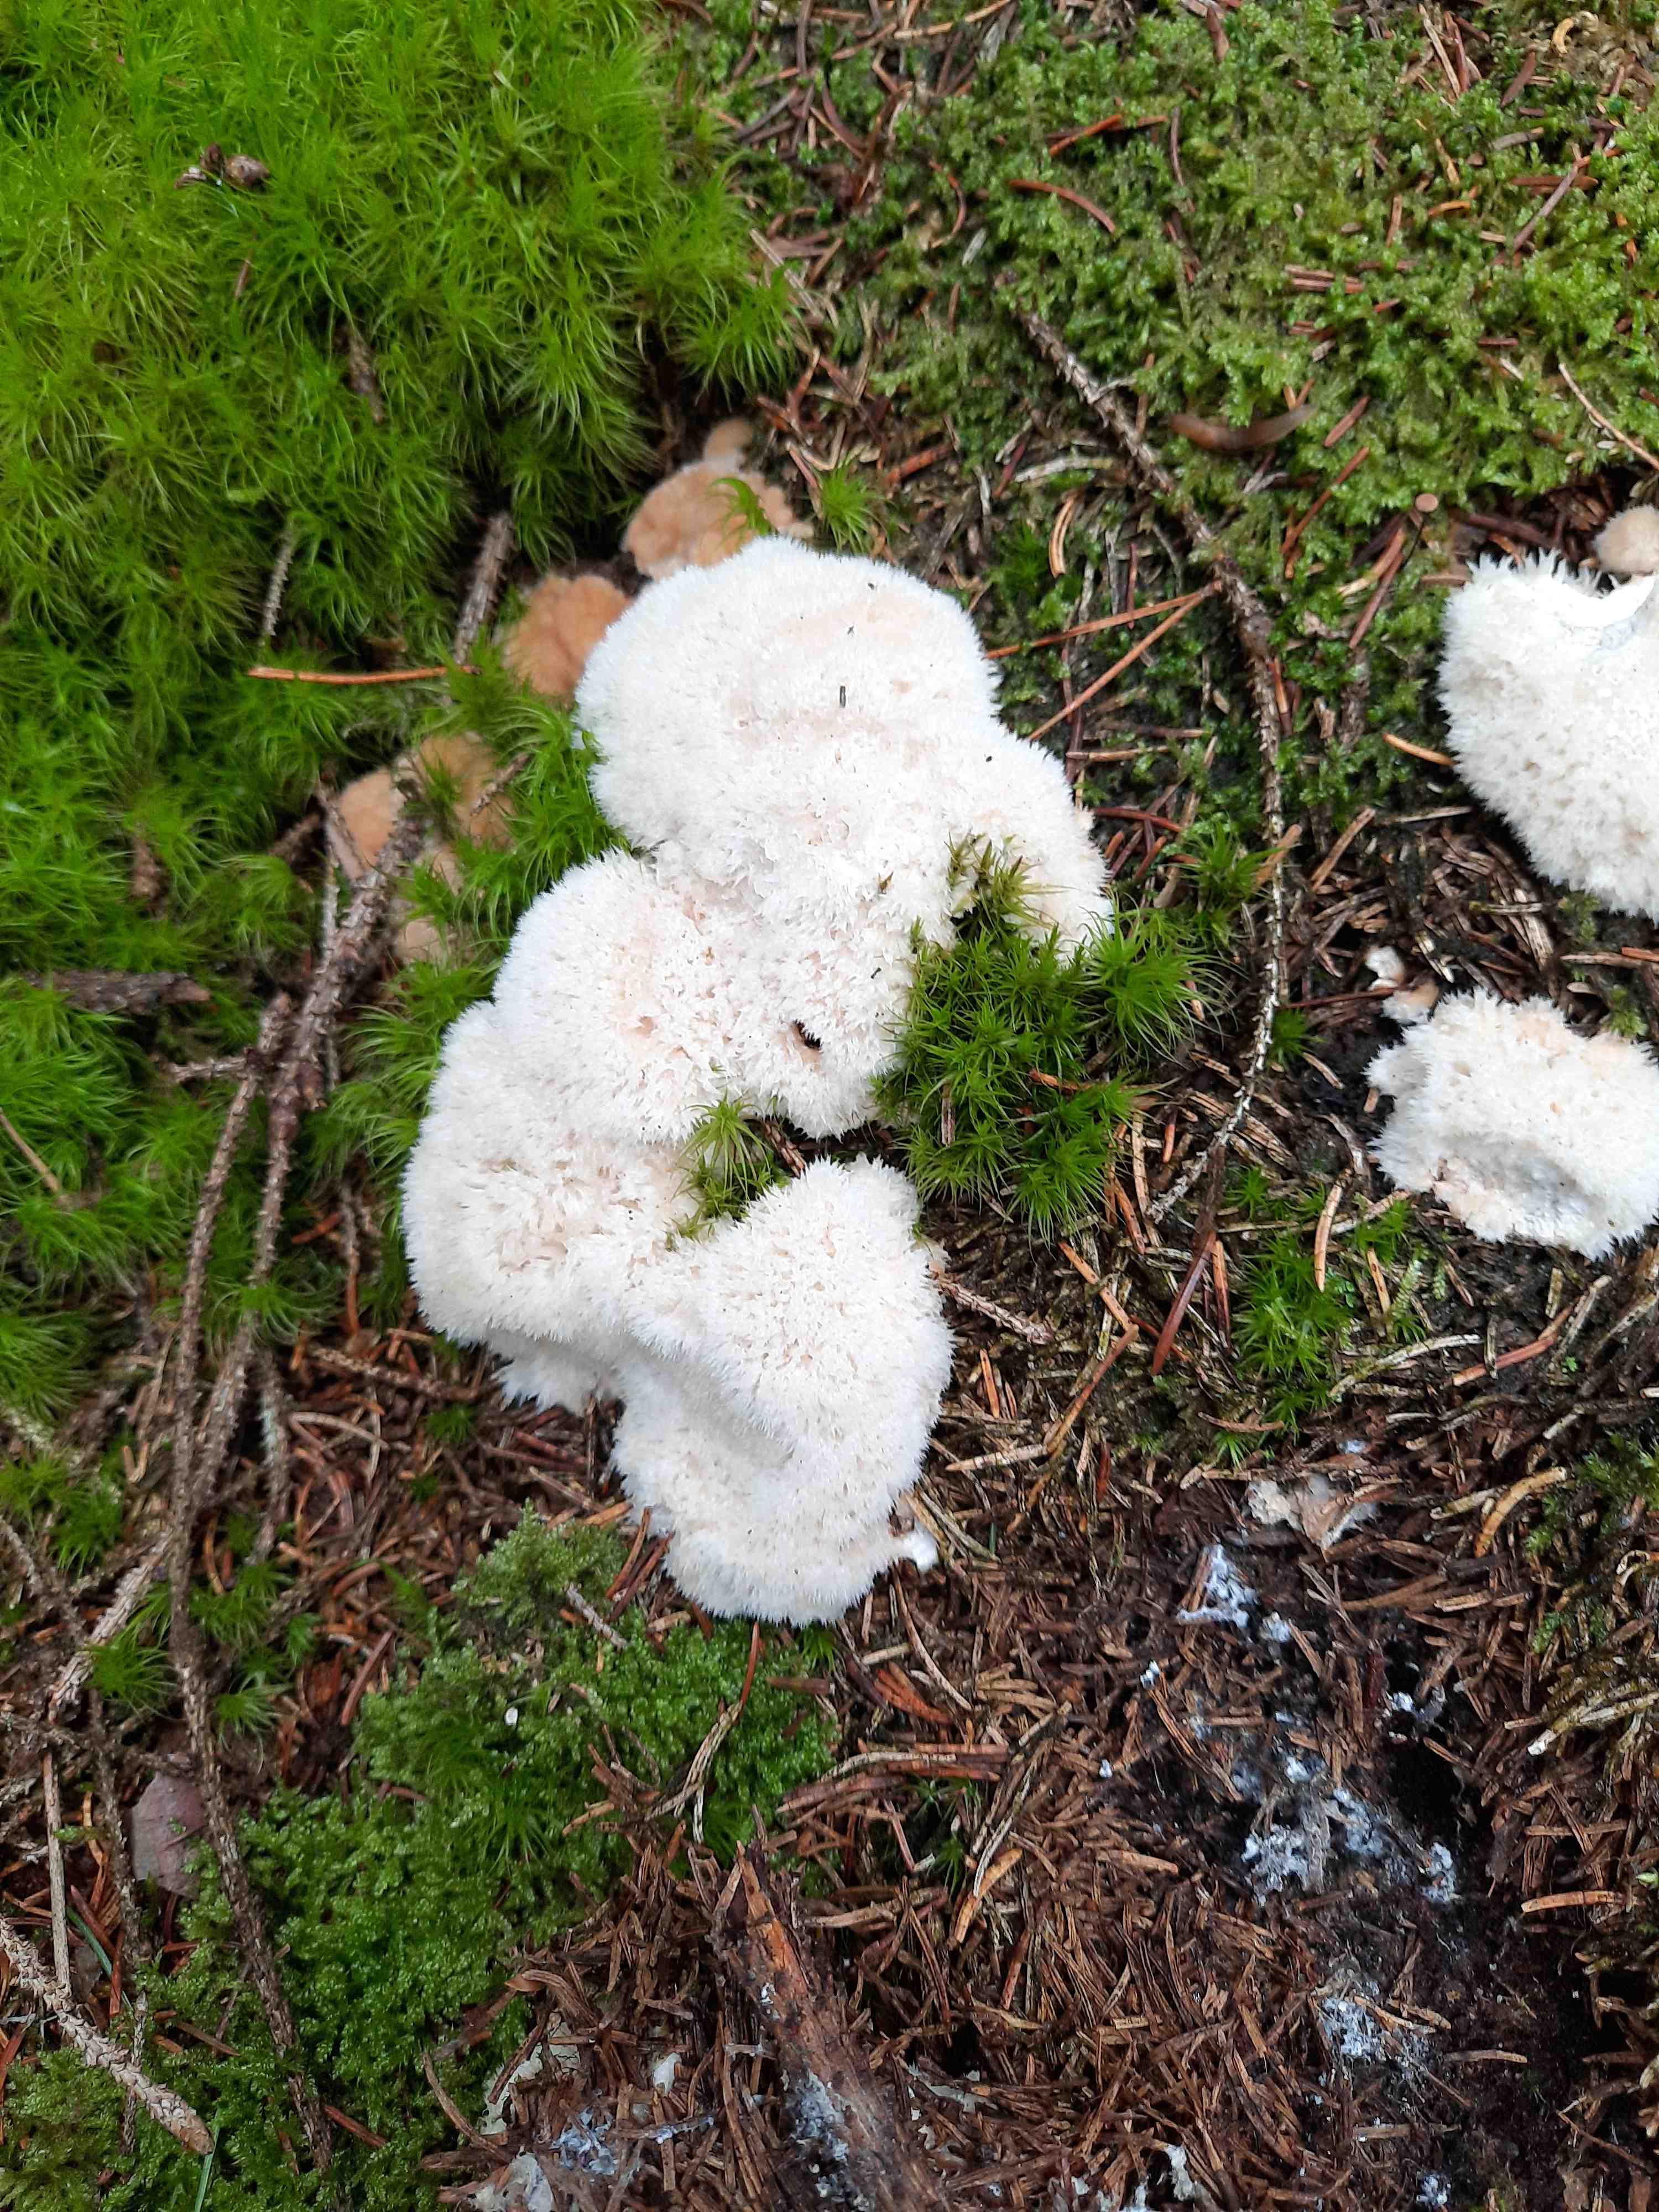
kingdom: Fungi
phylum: Basidiomycota
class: Agaricomycetes
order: Polyporales
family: Dacryobolaceae
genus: Postia
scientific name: Postia ptychogaster
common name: støvende kødporesvamp
